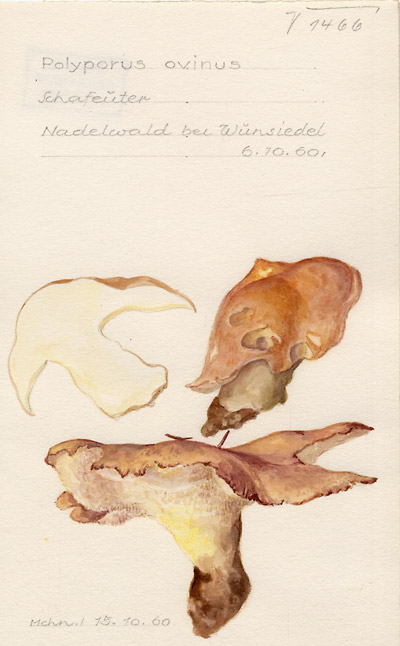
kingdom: Fungi
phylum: Basidiomycota
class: Agaricomycetes
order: Russulales
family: Albatrellaceae
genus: Albatrellus
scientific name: Albatrellus ovinus
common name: Forest lamb
